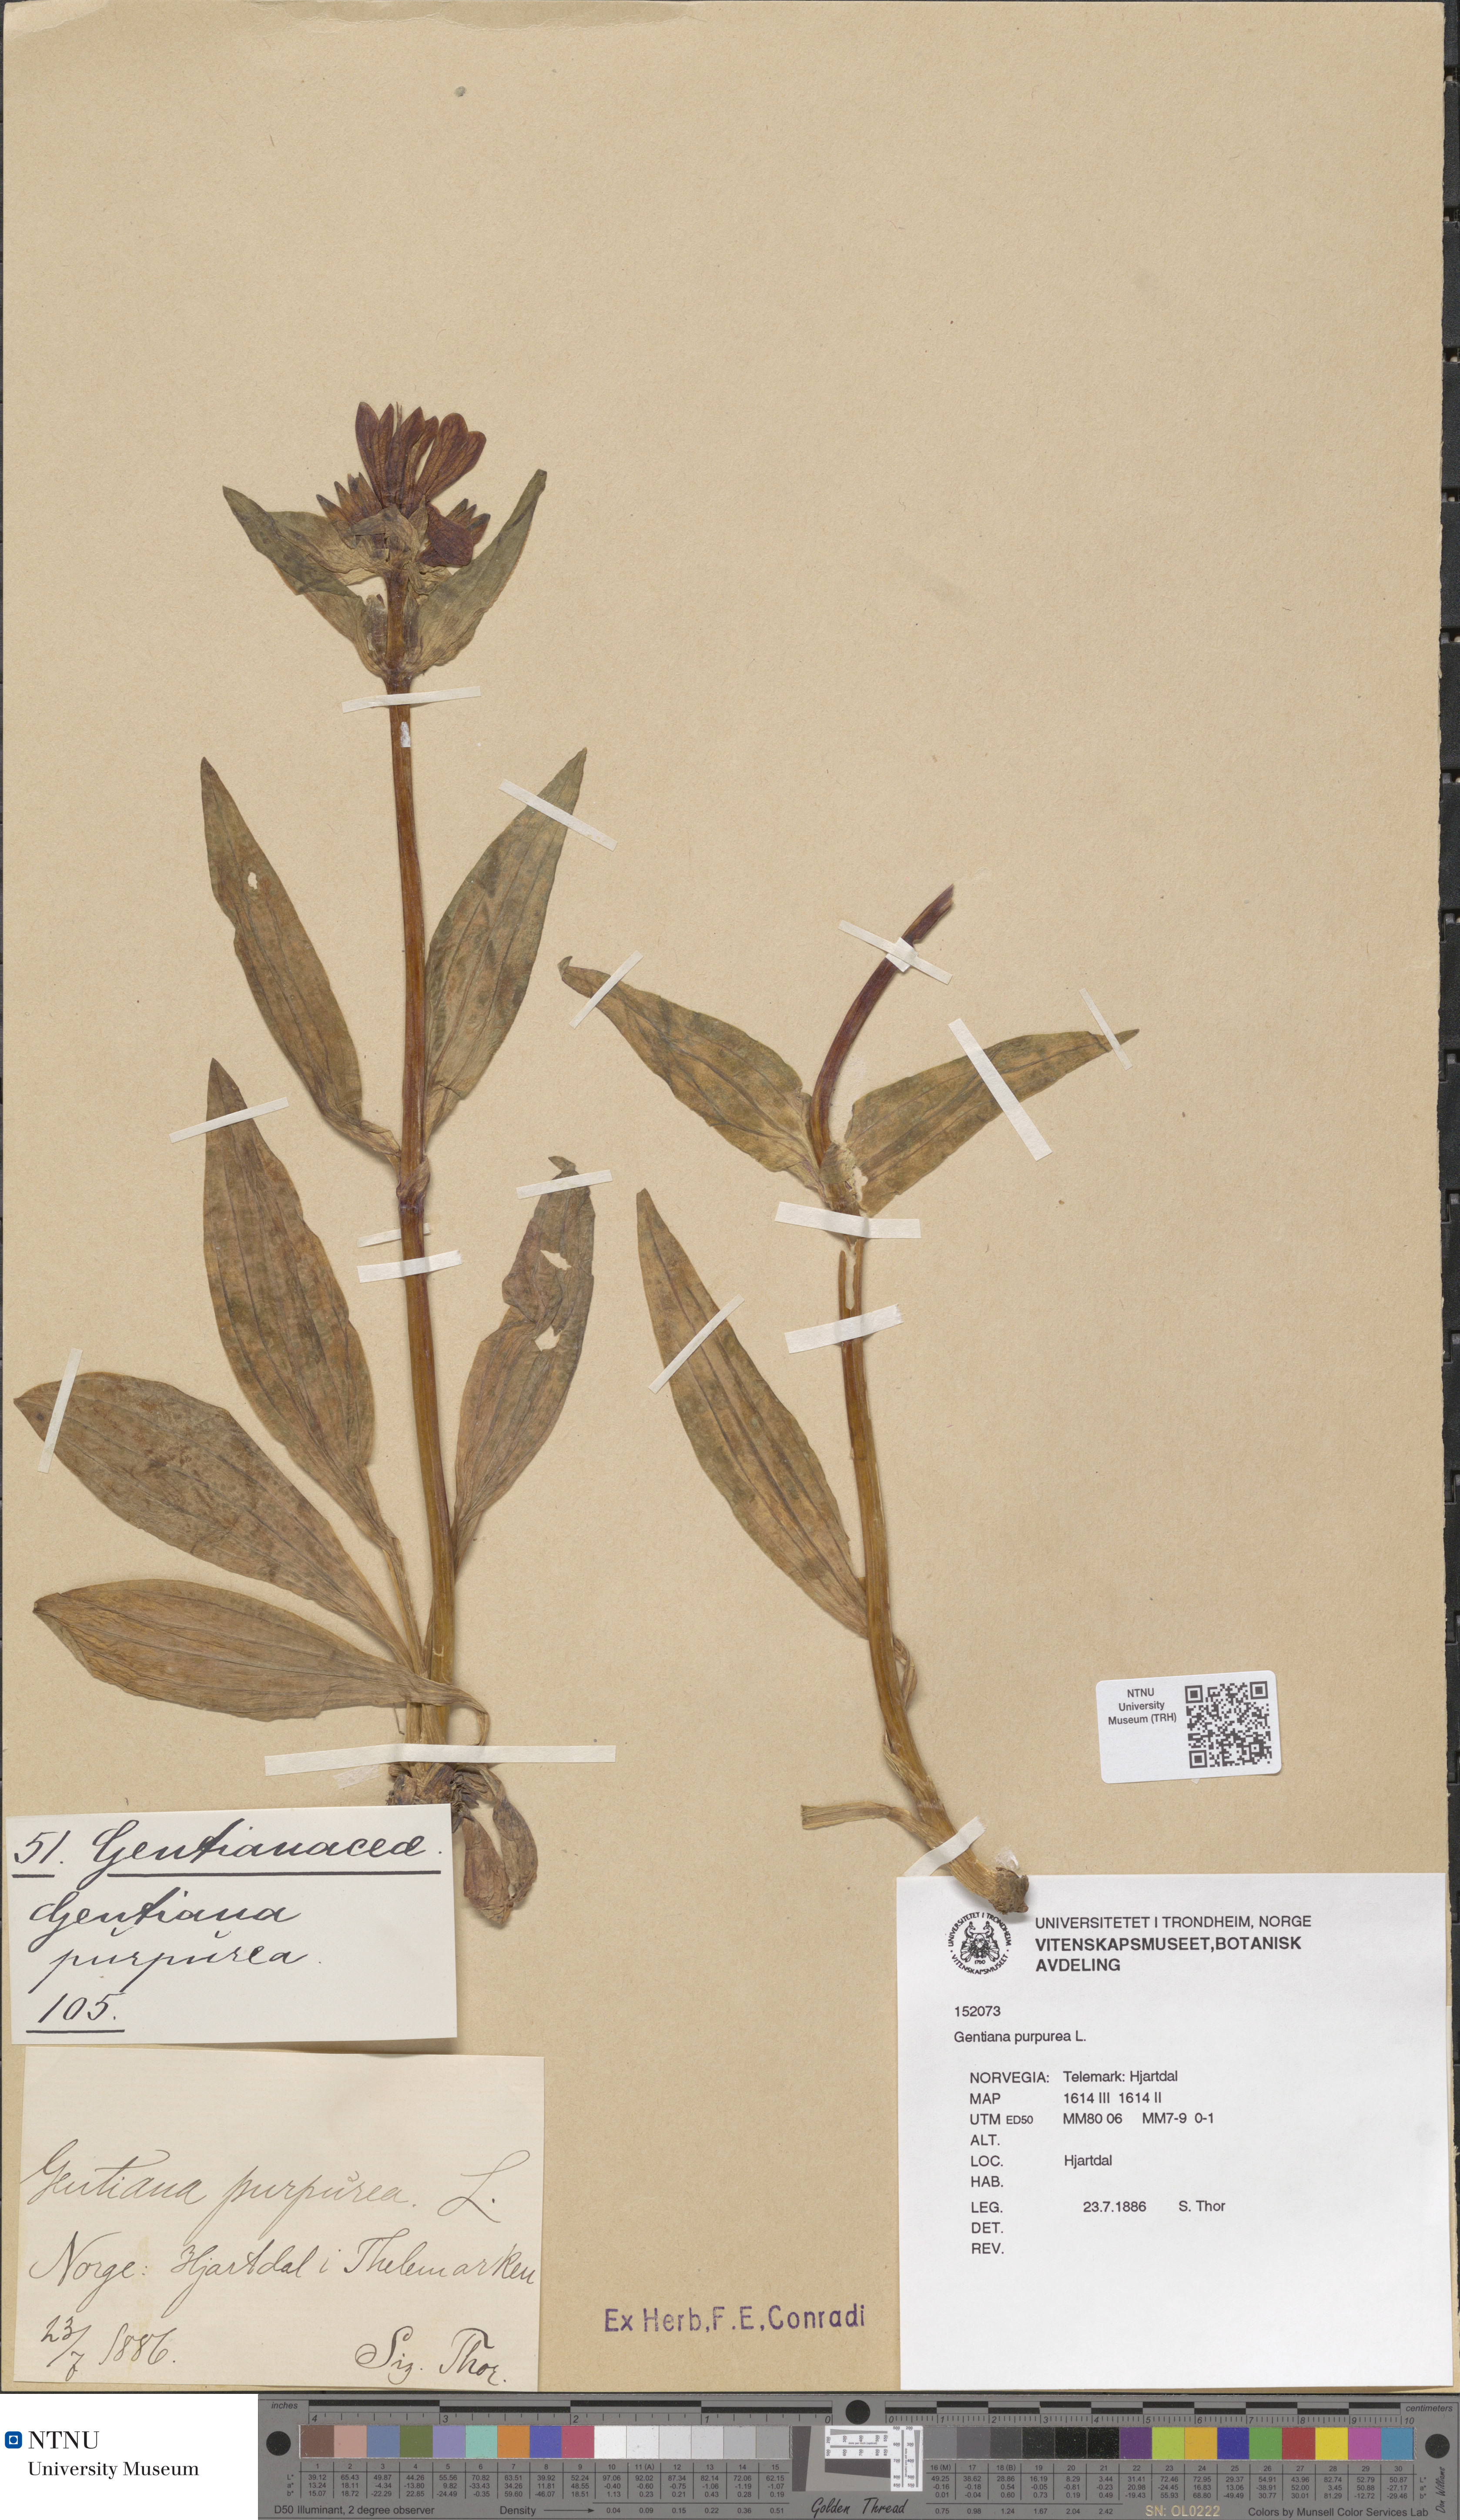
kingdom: Plantae
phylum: Tracheophyta
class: Magnoliopsida
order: Gentianales
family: Gentianaceae
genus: Gentiana
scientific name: Gentiana purpurea
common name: Purple gentian
